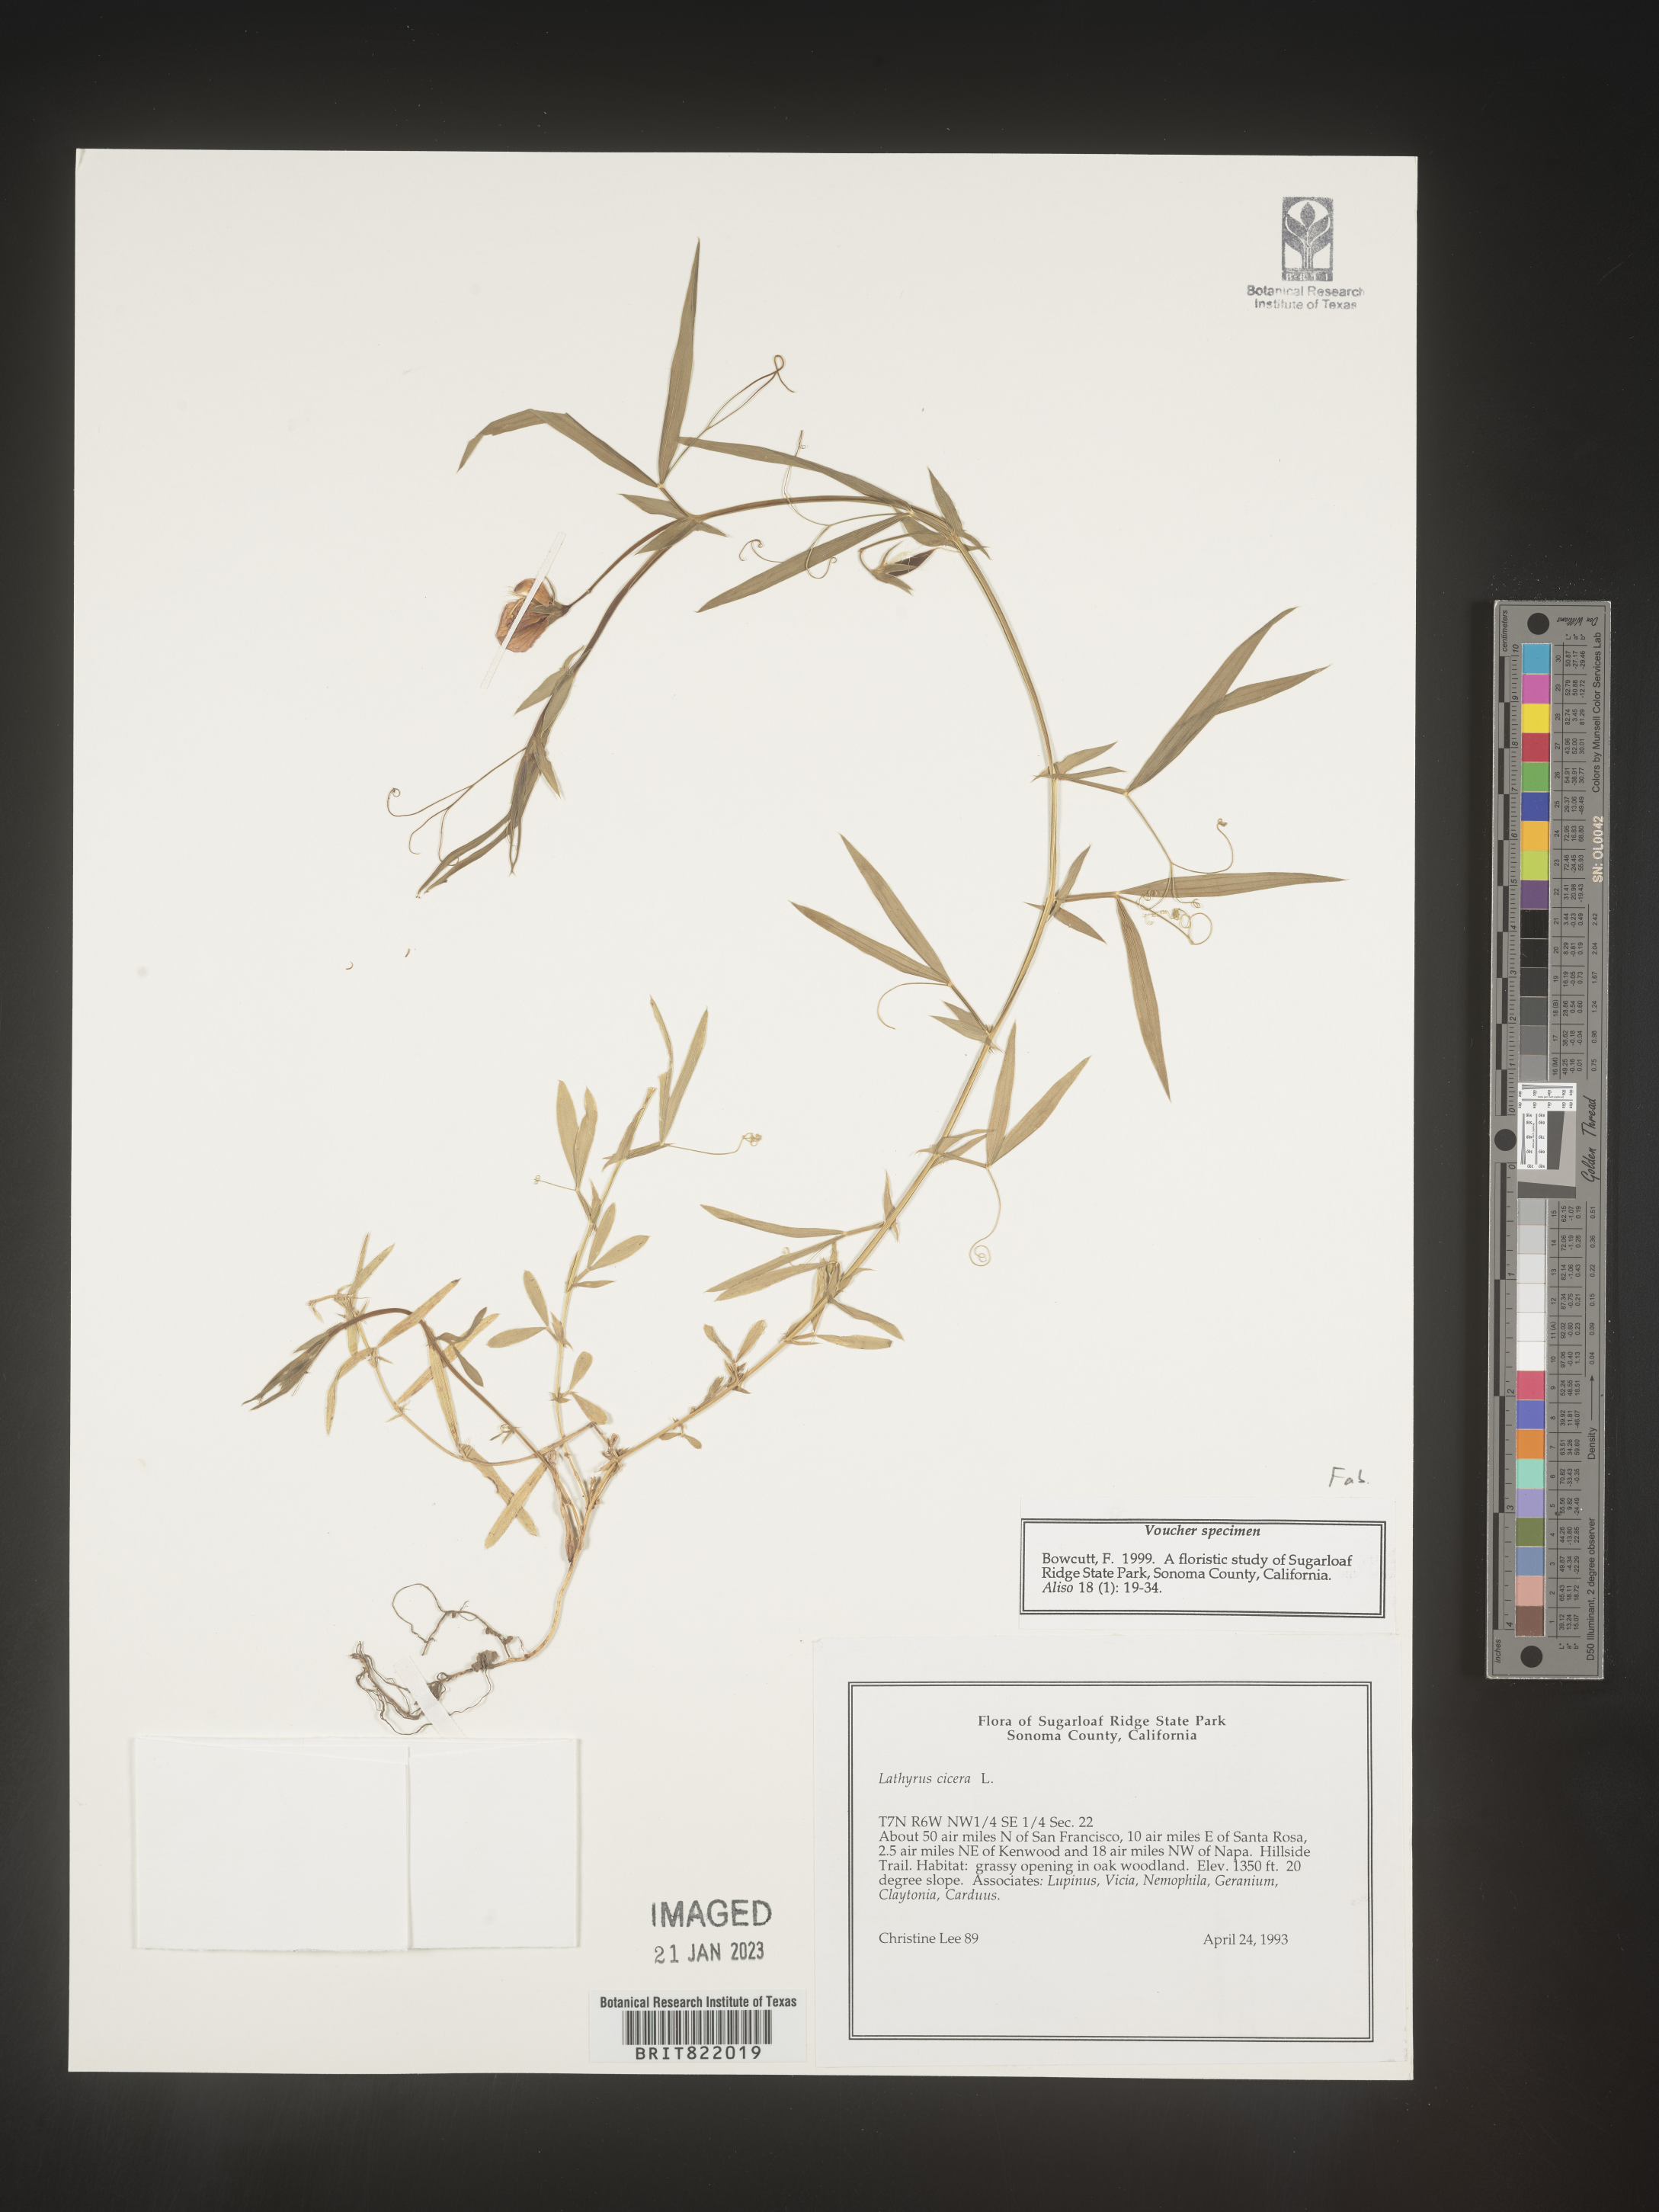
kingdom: Plantae
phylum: Tracheophyta
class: Magnoliopsida
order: Fabales
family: Fabaceae
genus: Lathyrus
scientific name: Lathyrus
